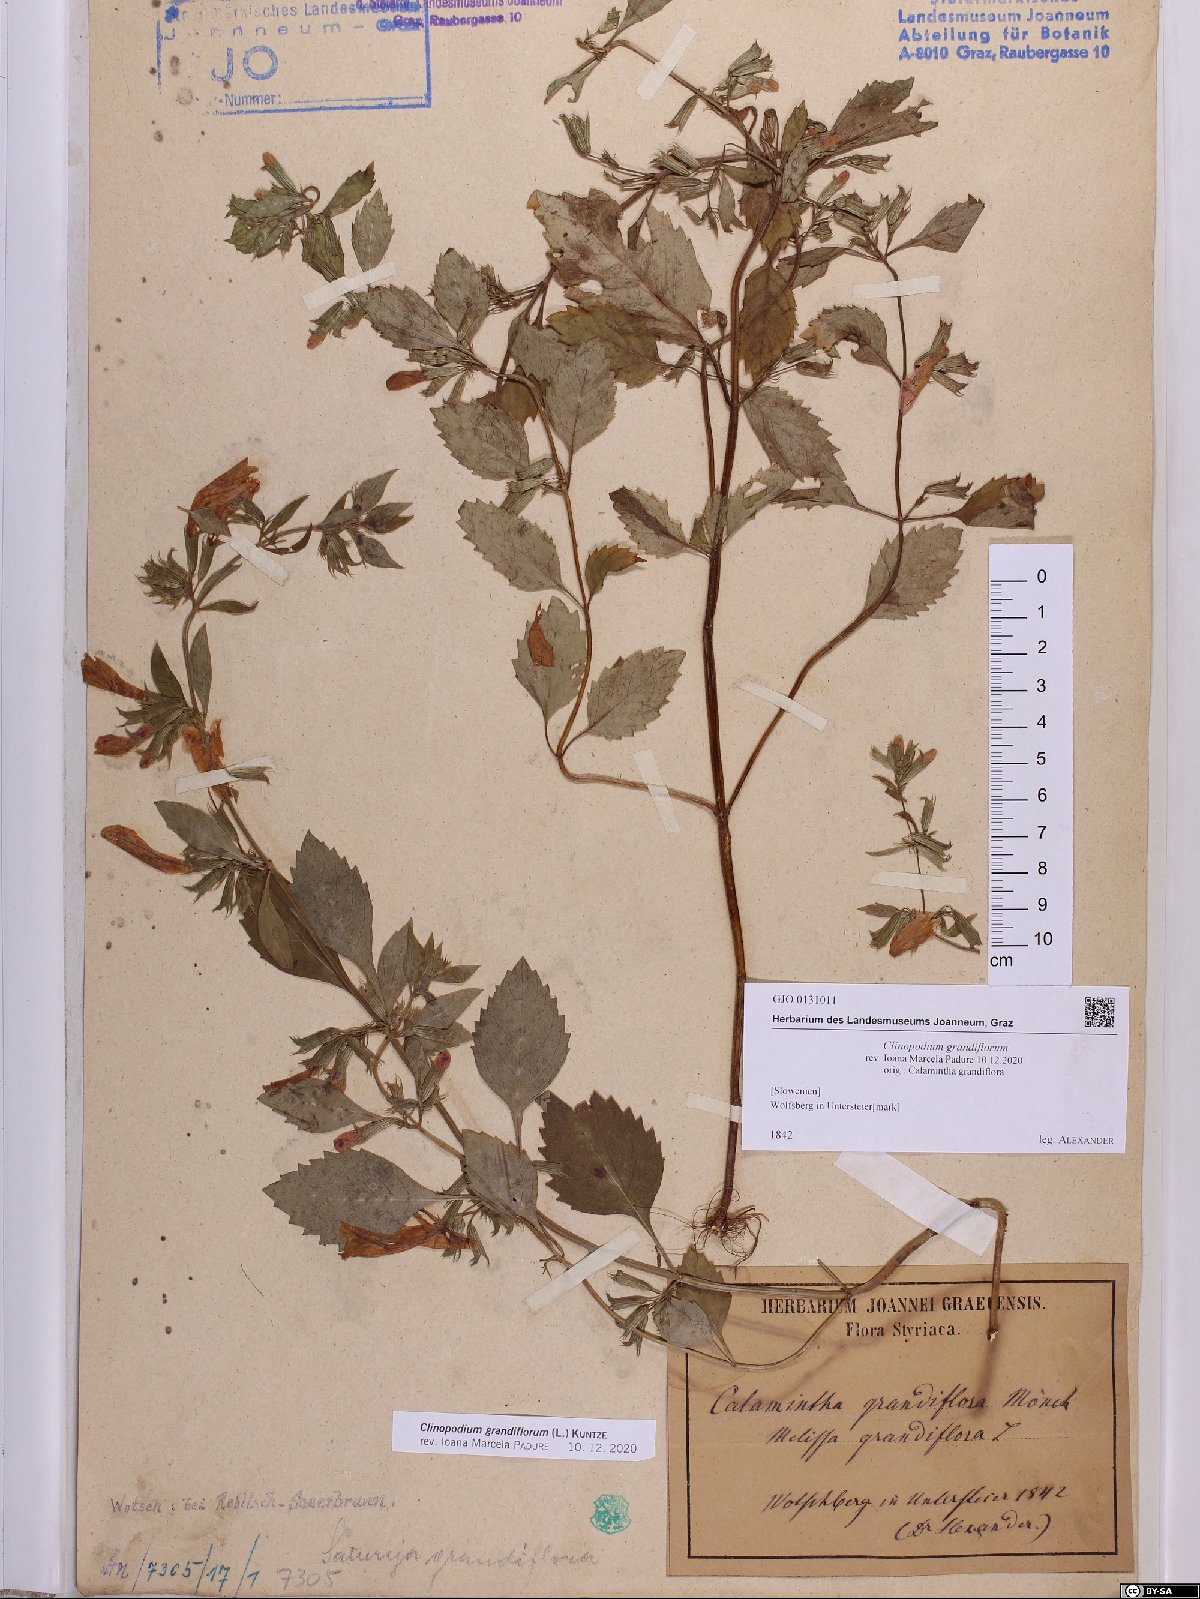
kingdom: Plantae
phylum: Tracheophyta
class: Magnoliopsida
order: Lamiales
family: Lamiaceae
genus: Clinopodium
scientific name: Clinopodium grandiflorum
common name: Greater calamint
